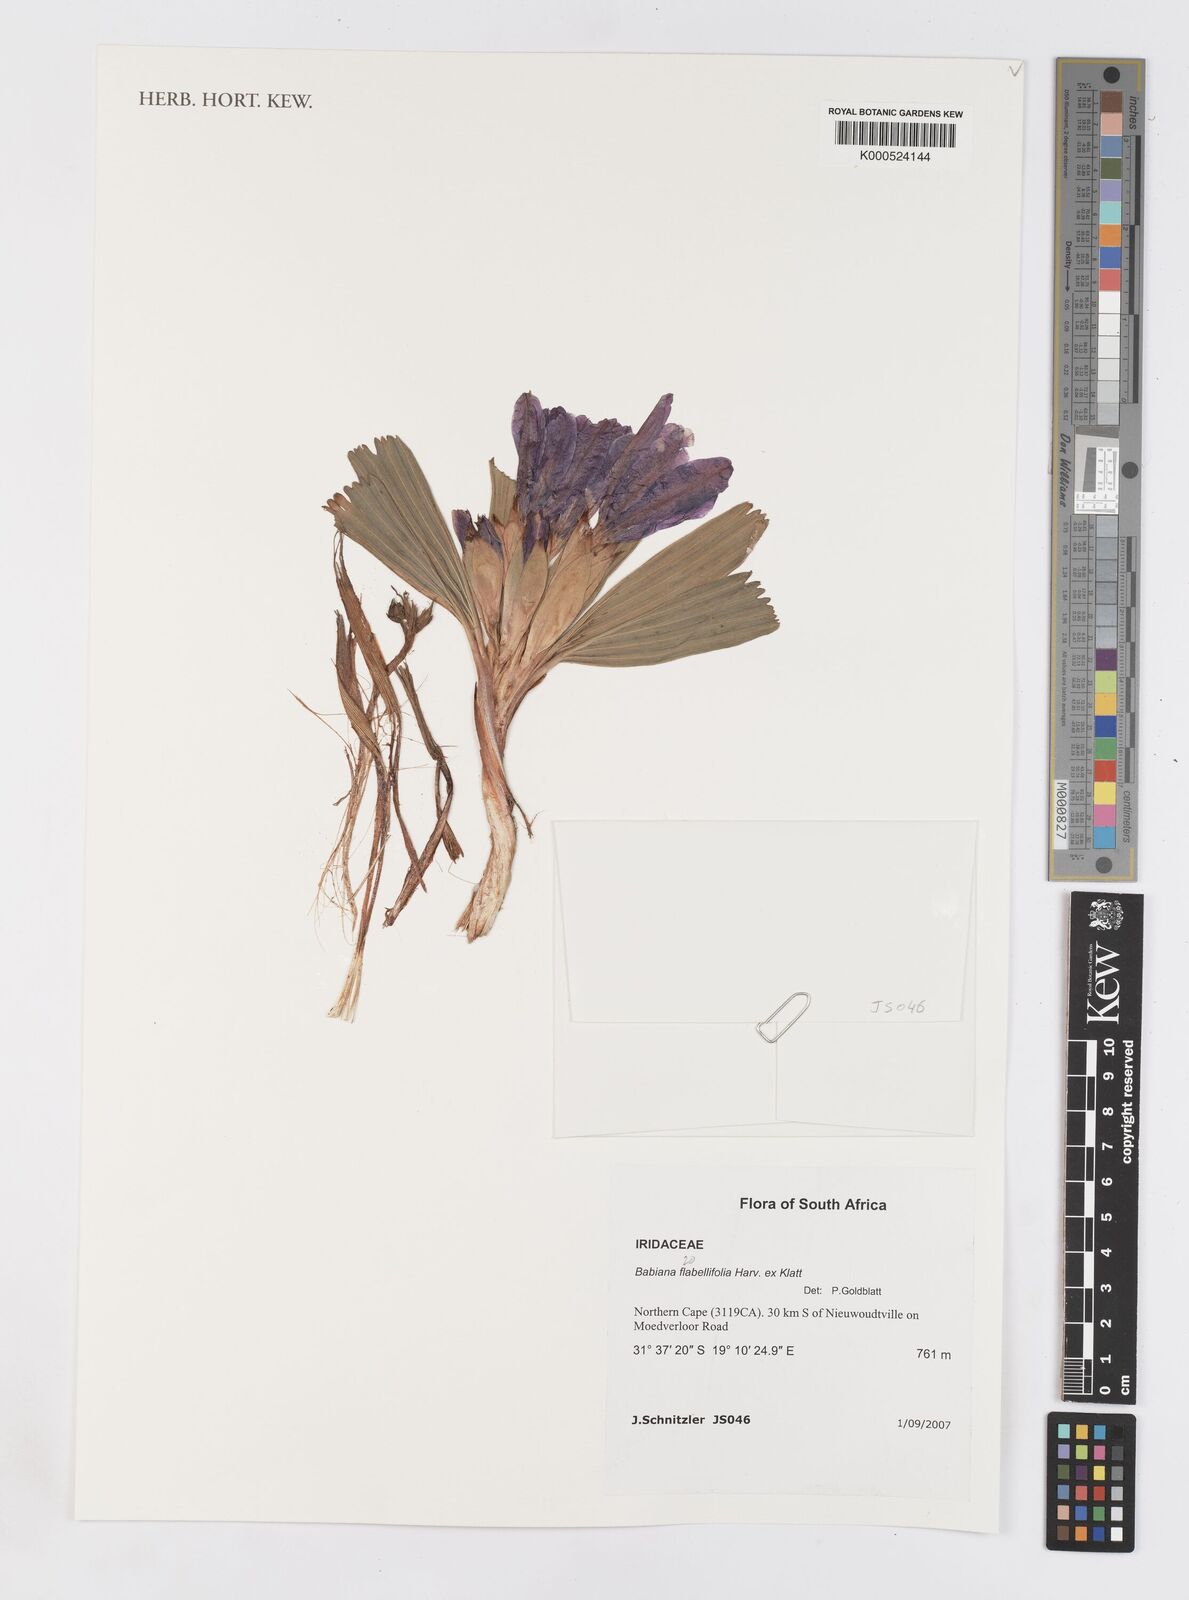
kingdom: Plantae
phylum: Tracheophyta
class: Liliopsida
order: Asparagales
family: Iridaceae
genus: Babiana
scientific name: Babiana flabellifolia
